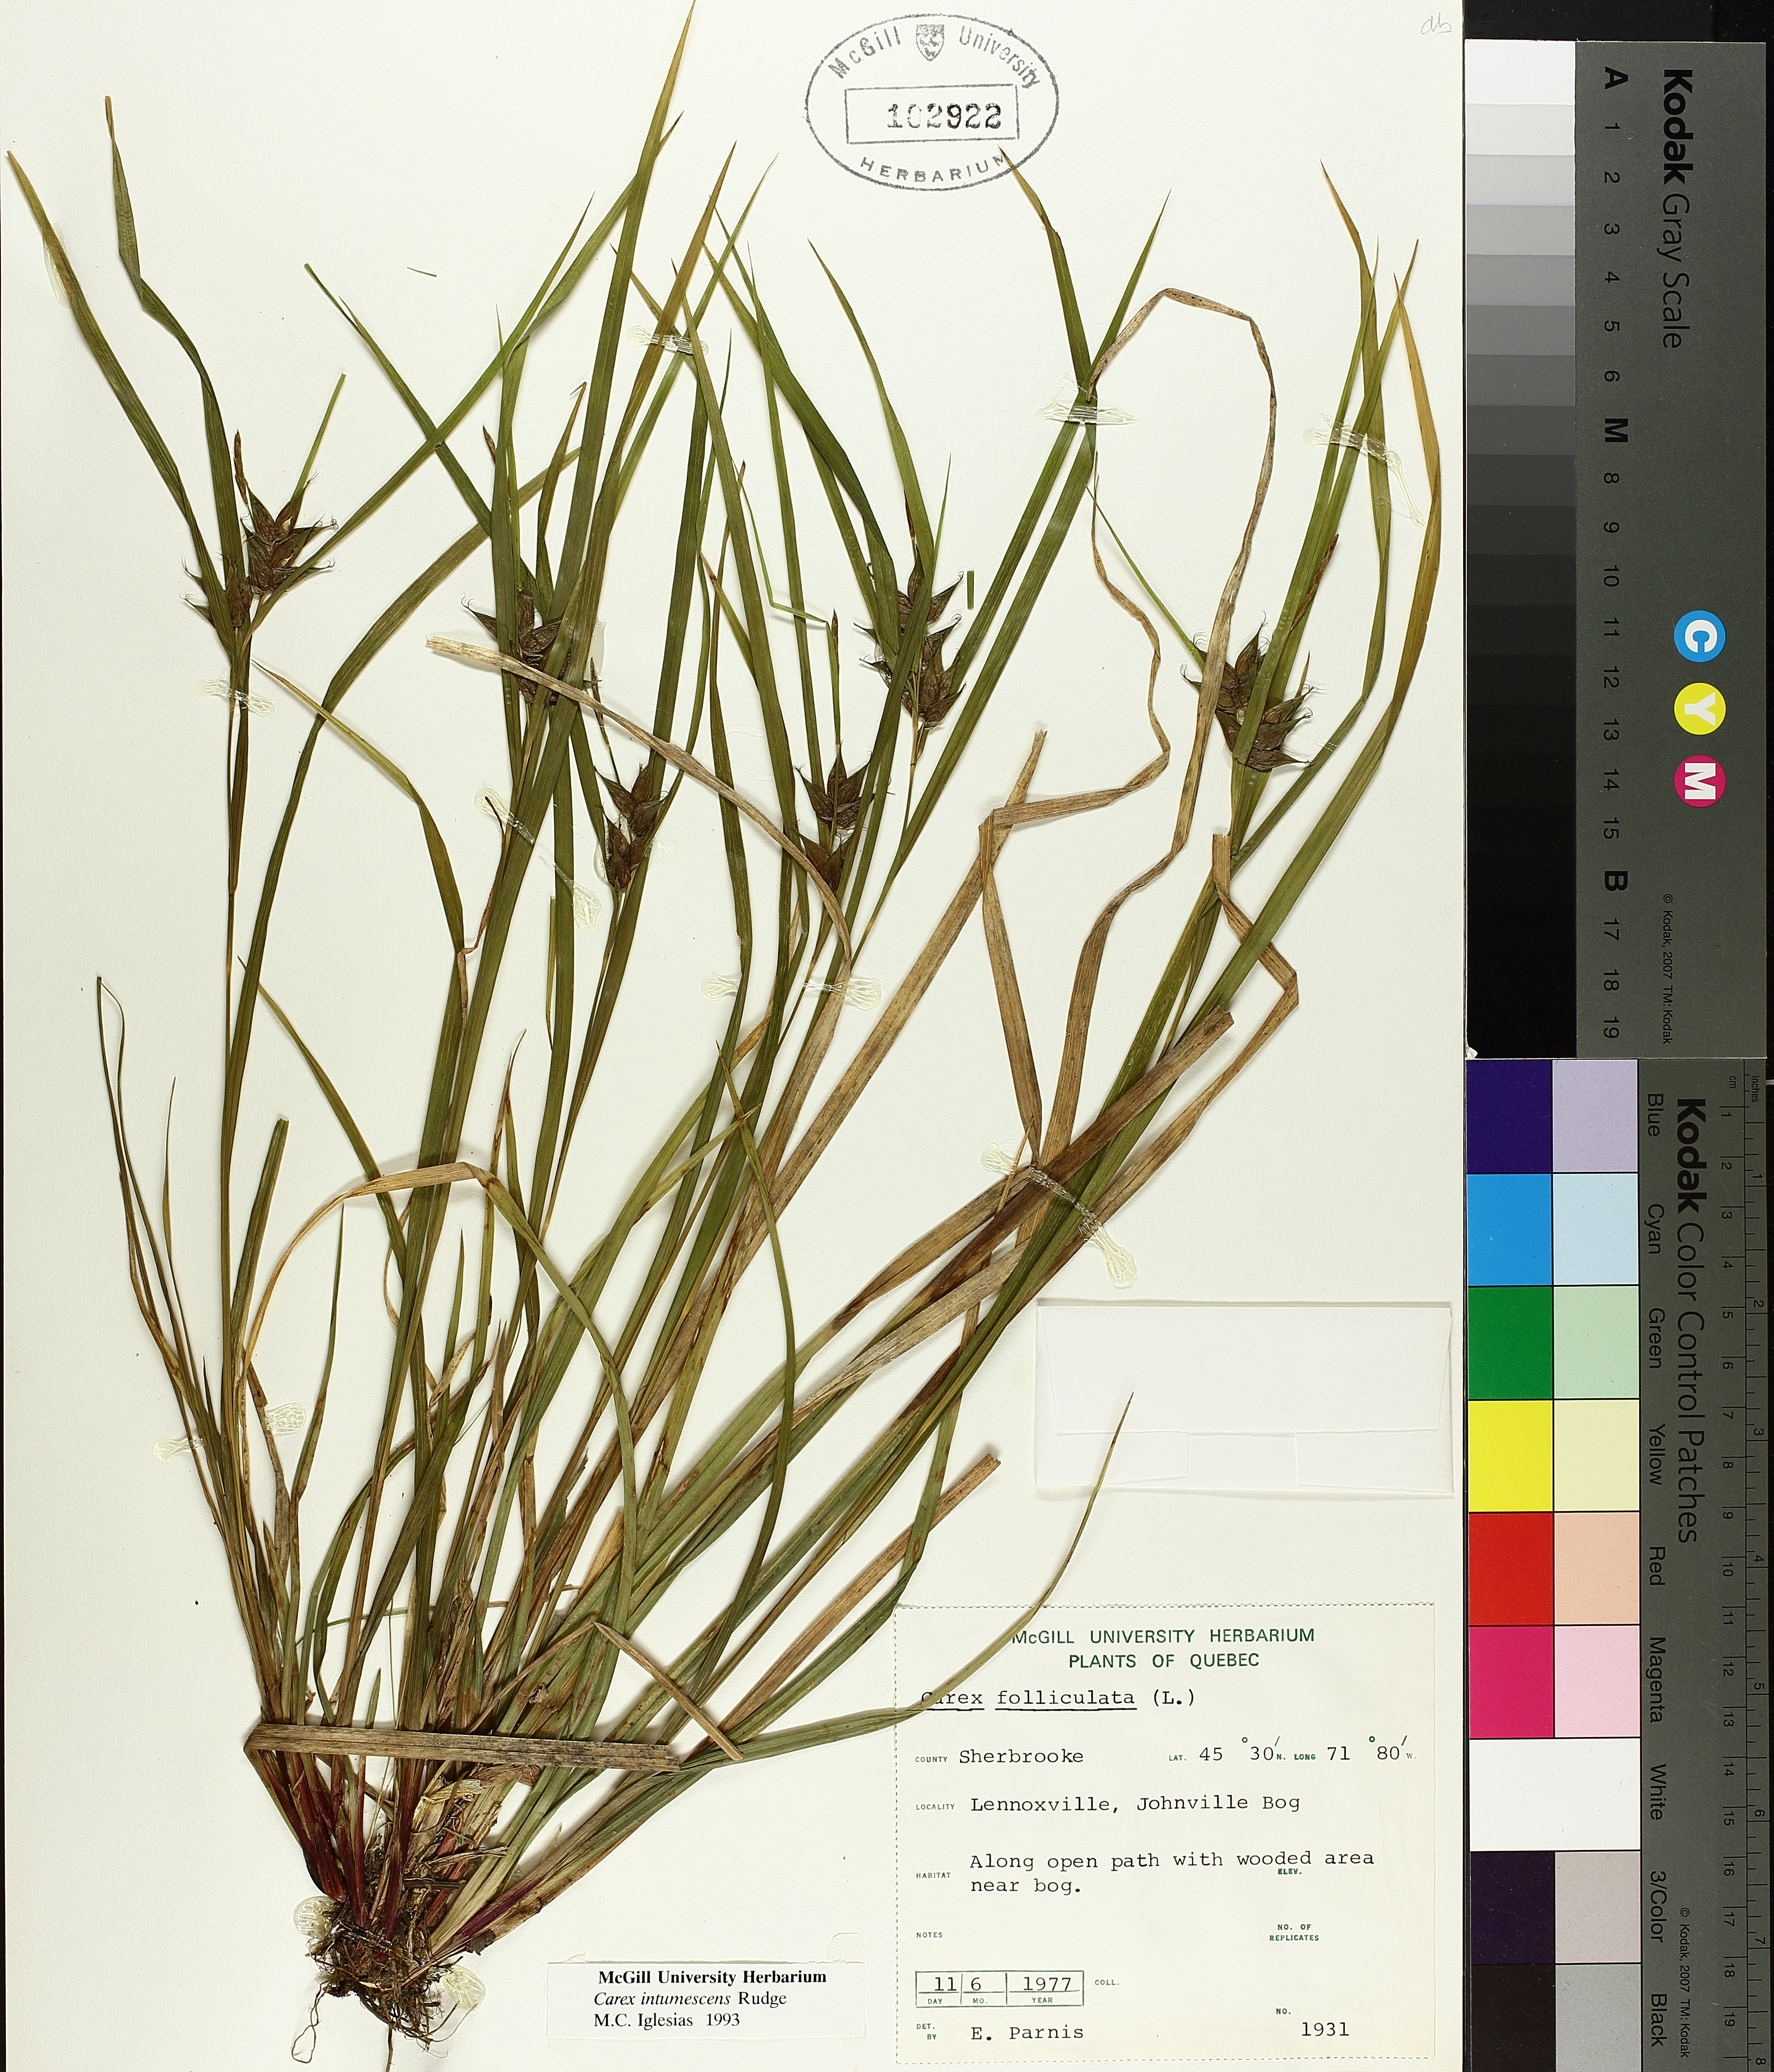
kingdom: Plantae
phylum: Tracheophyta
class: Liliopsida
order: Poales
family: Cyperaceae
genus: Carex
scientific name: Carex intumescens
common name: Greater bladder sedge
